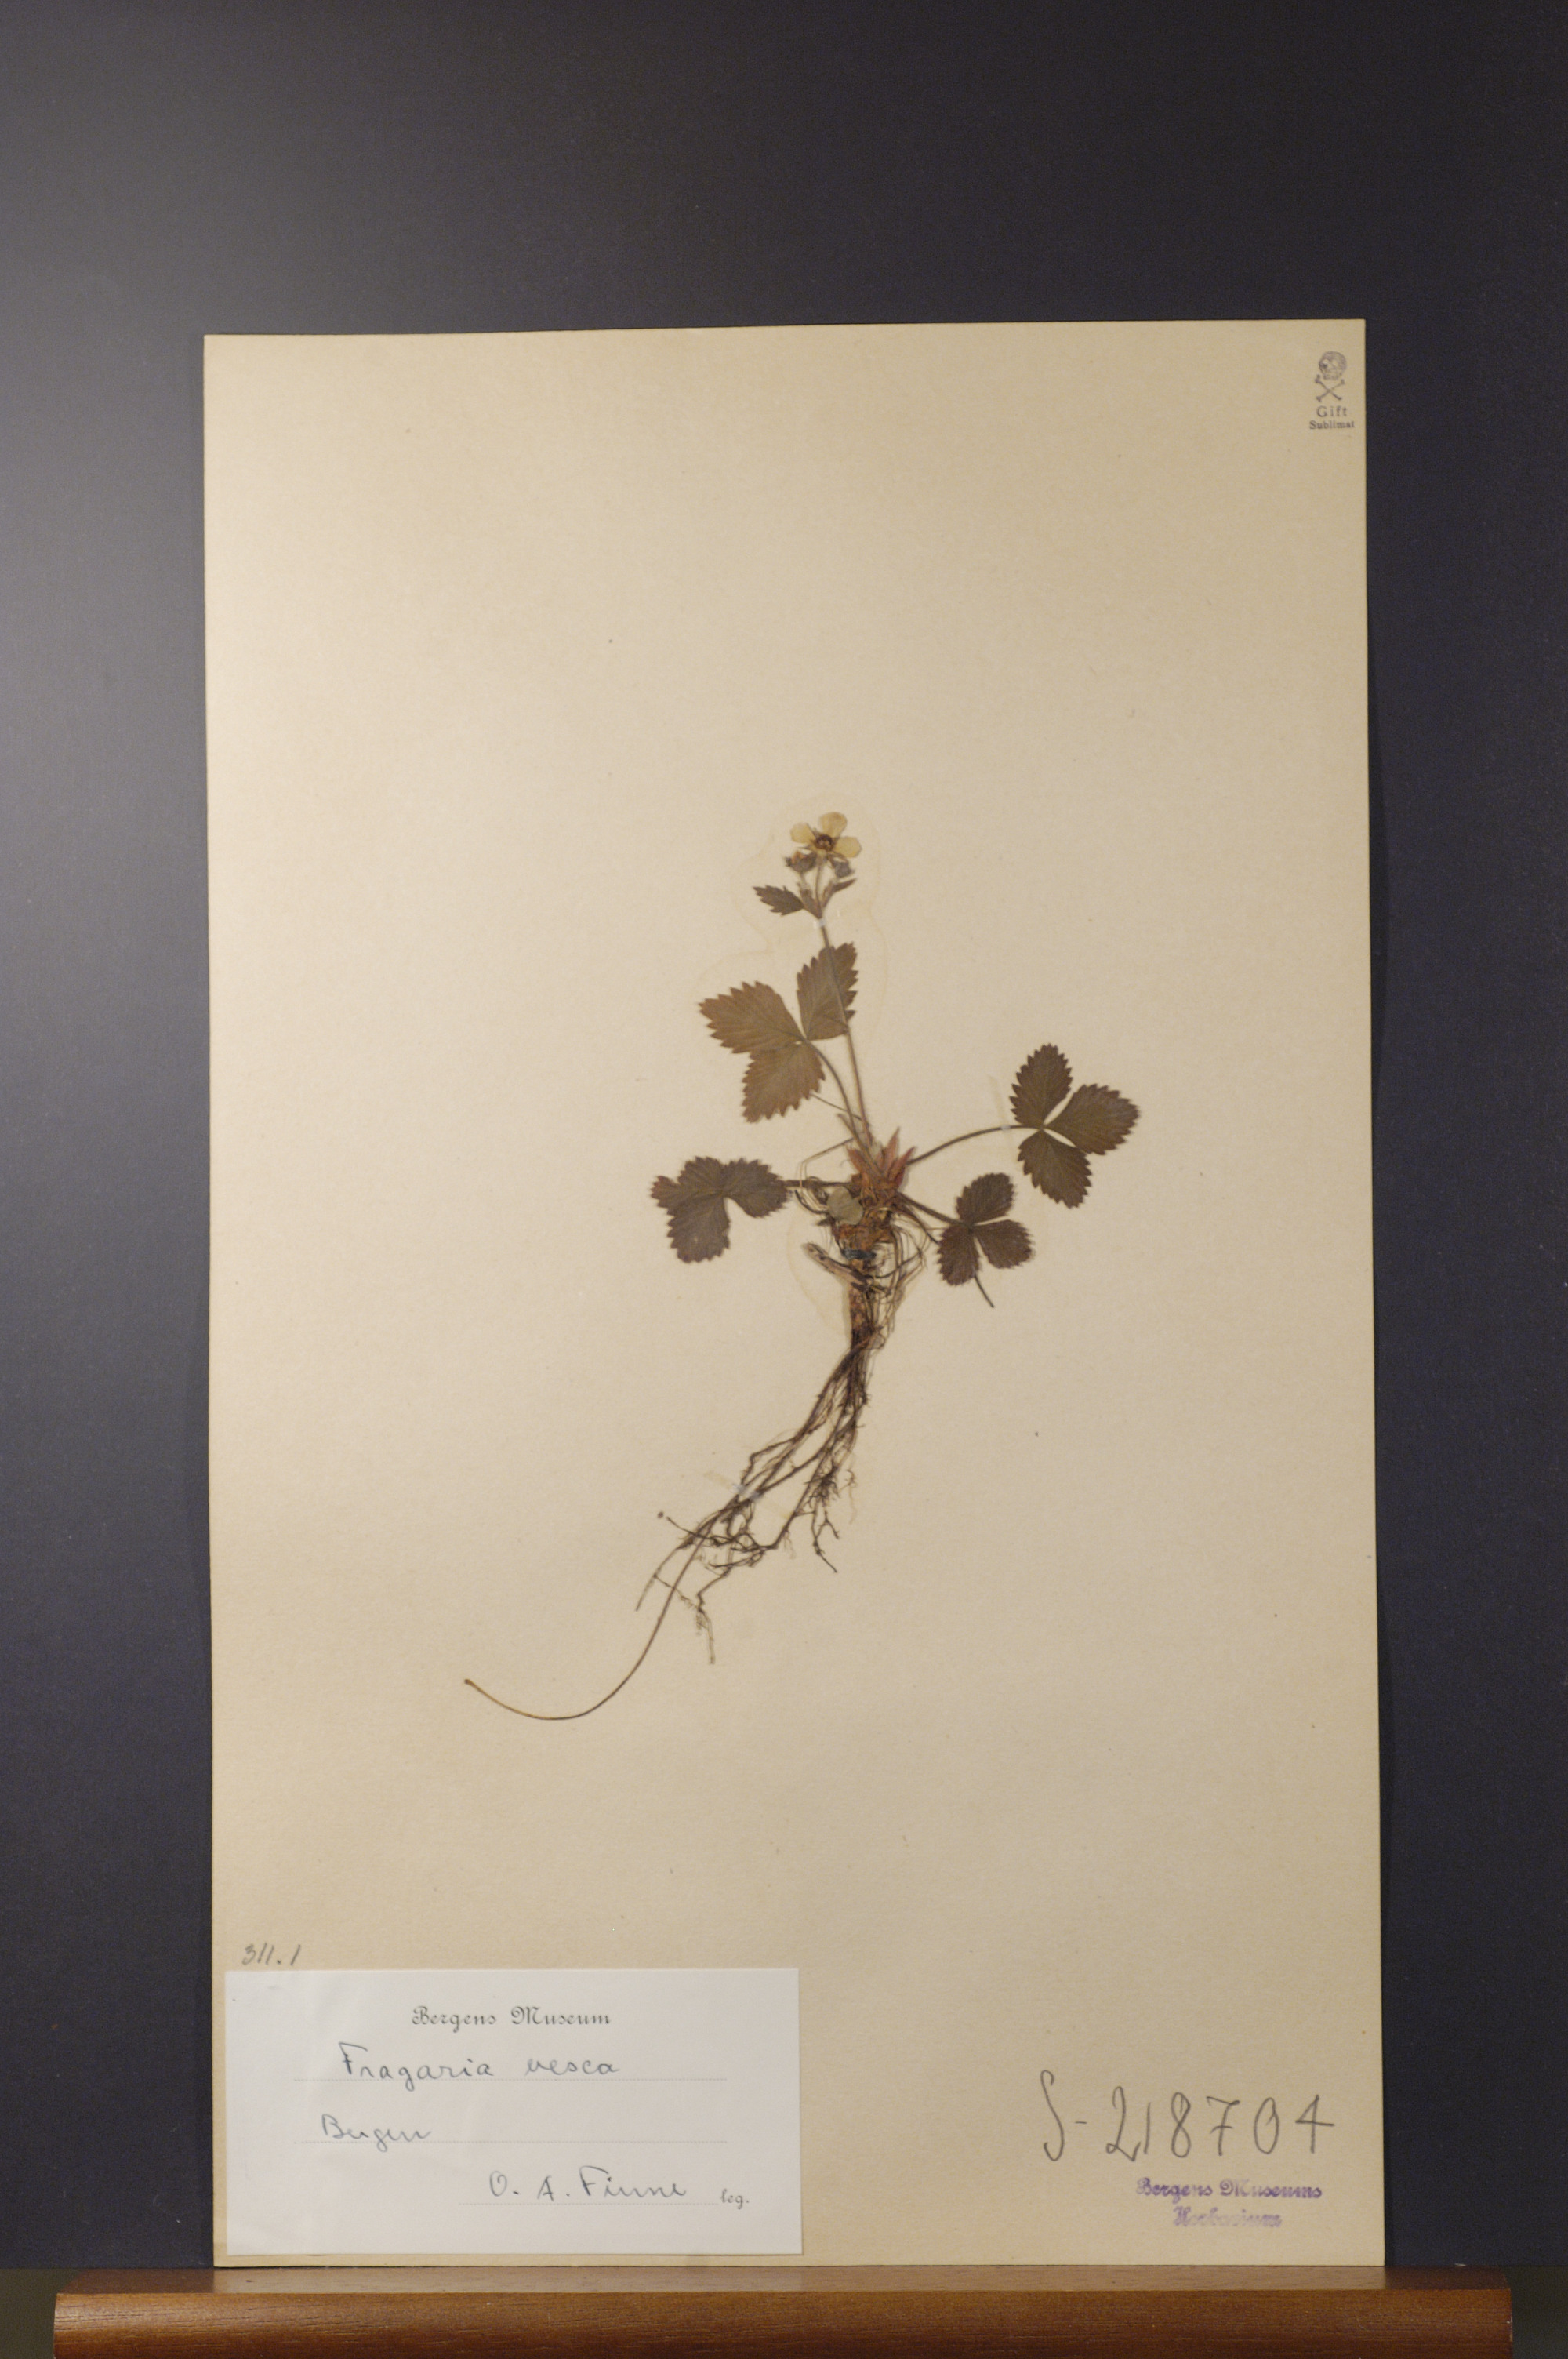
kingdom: Plantae
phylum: Tracheophyta
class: Magnoliopsida
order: Rosales
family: Rosaceae
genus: Fragaria
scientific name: Fragaria vesca
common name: Wild strawberry
